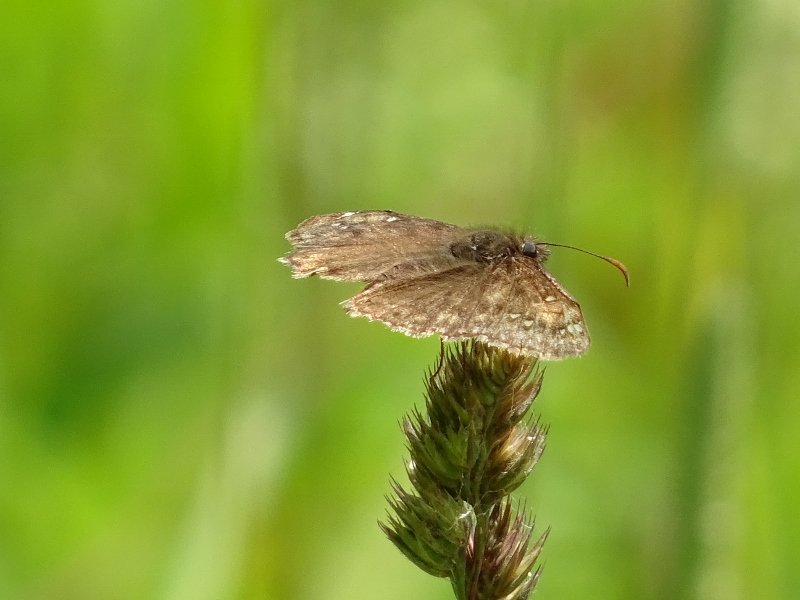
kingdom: Animalia
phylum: Arthropoda
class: Insecta
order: Lepidoptera
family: Hesperiidae
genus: Gesta
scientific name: Gesta
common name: Juvenal's Duskywing
